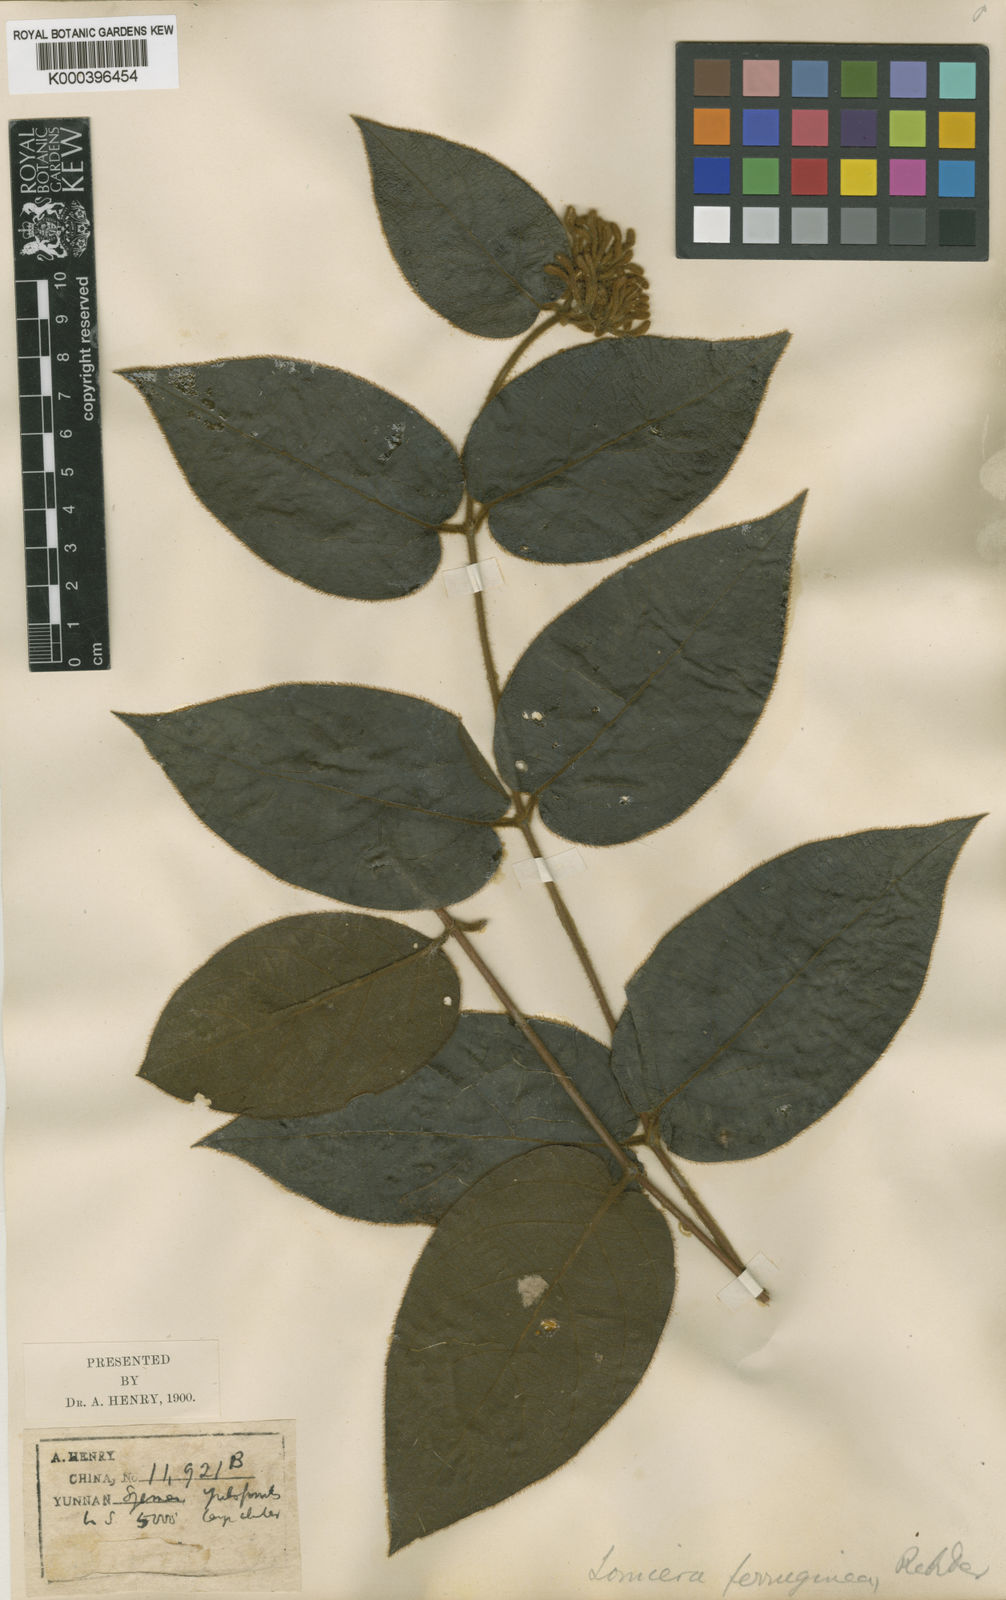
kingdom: Plantae
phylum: Tracheophyta
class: Magnoliopsida
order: Dipsacales
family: Caprifoliaceae
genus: Lonicera
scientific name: Lonicera ferruginea
